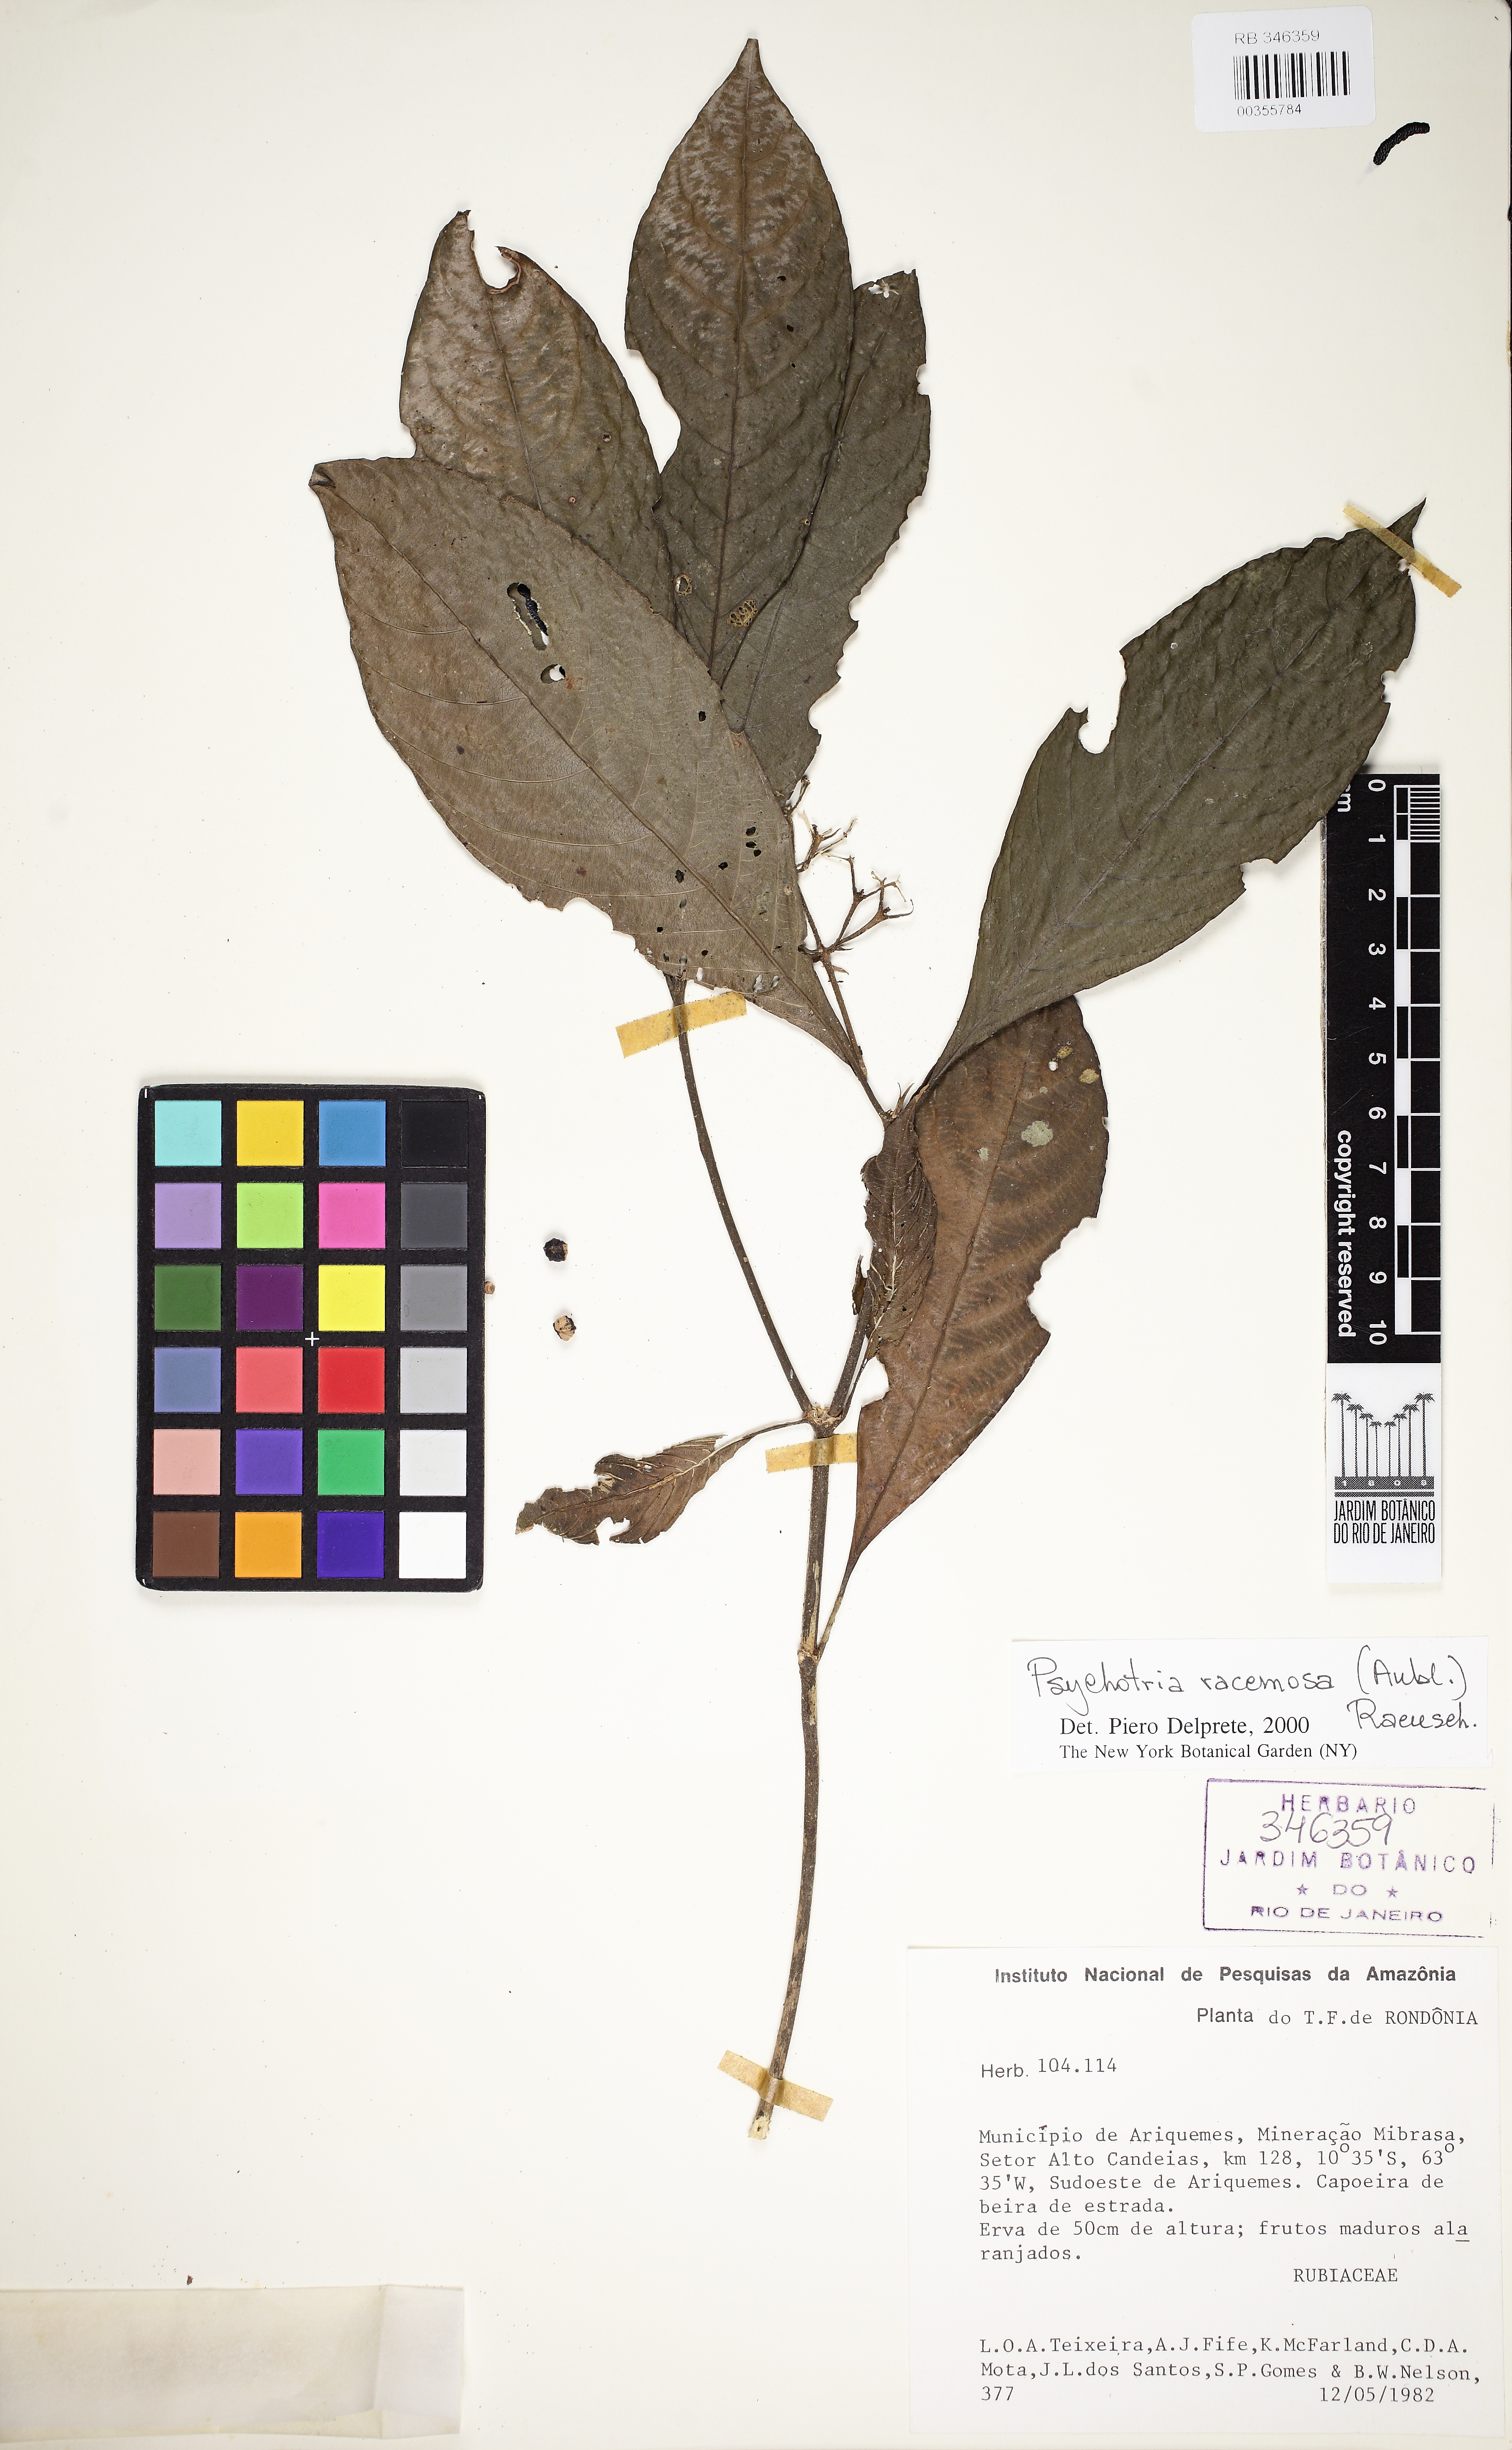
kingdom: Plantae
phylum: Tracheophyta
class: Magnoliopsida
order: Gentianales
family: Rubiaceae
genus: Palicourea
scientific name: Palicourea racemosa
